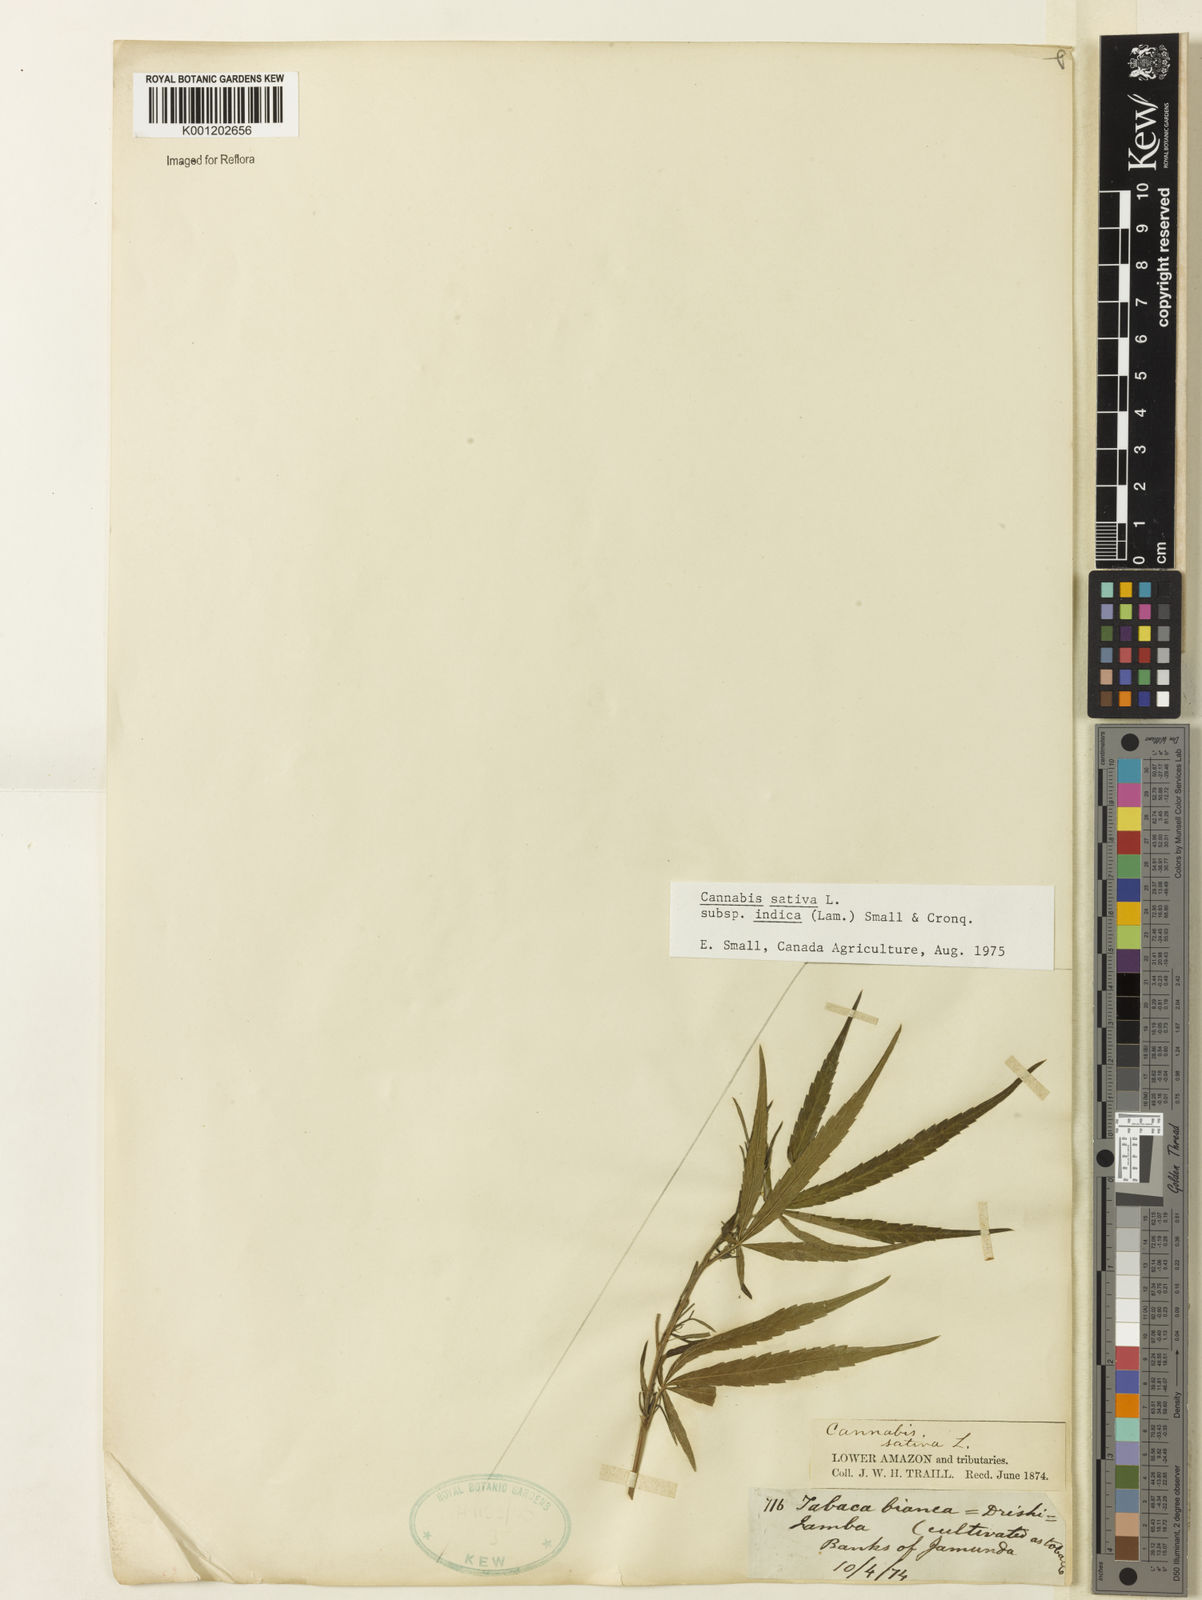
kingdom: Plantae
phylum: Tracheophyta
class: Magnoliopsida
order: Rosales
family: Cannabaceae
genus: Cannabis
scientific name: Cannabis sativa
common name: Hemp
